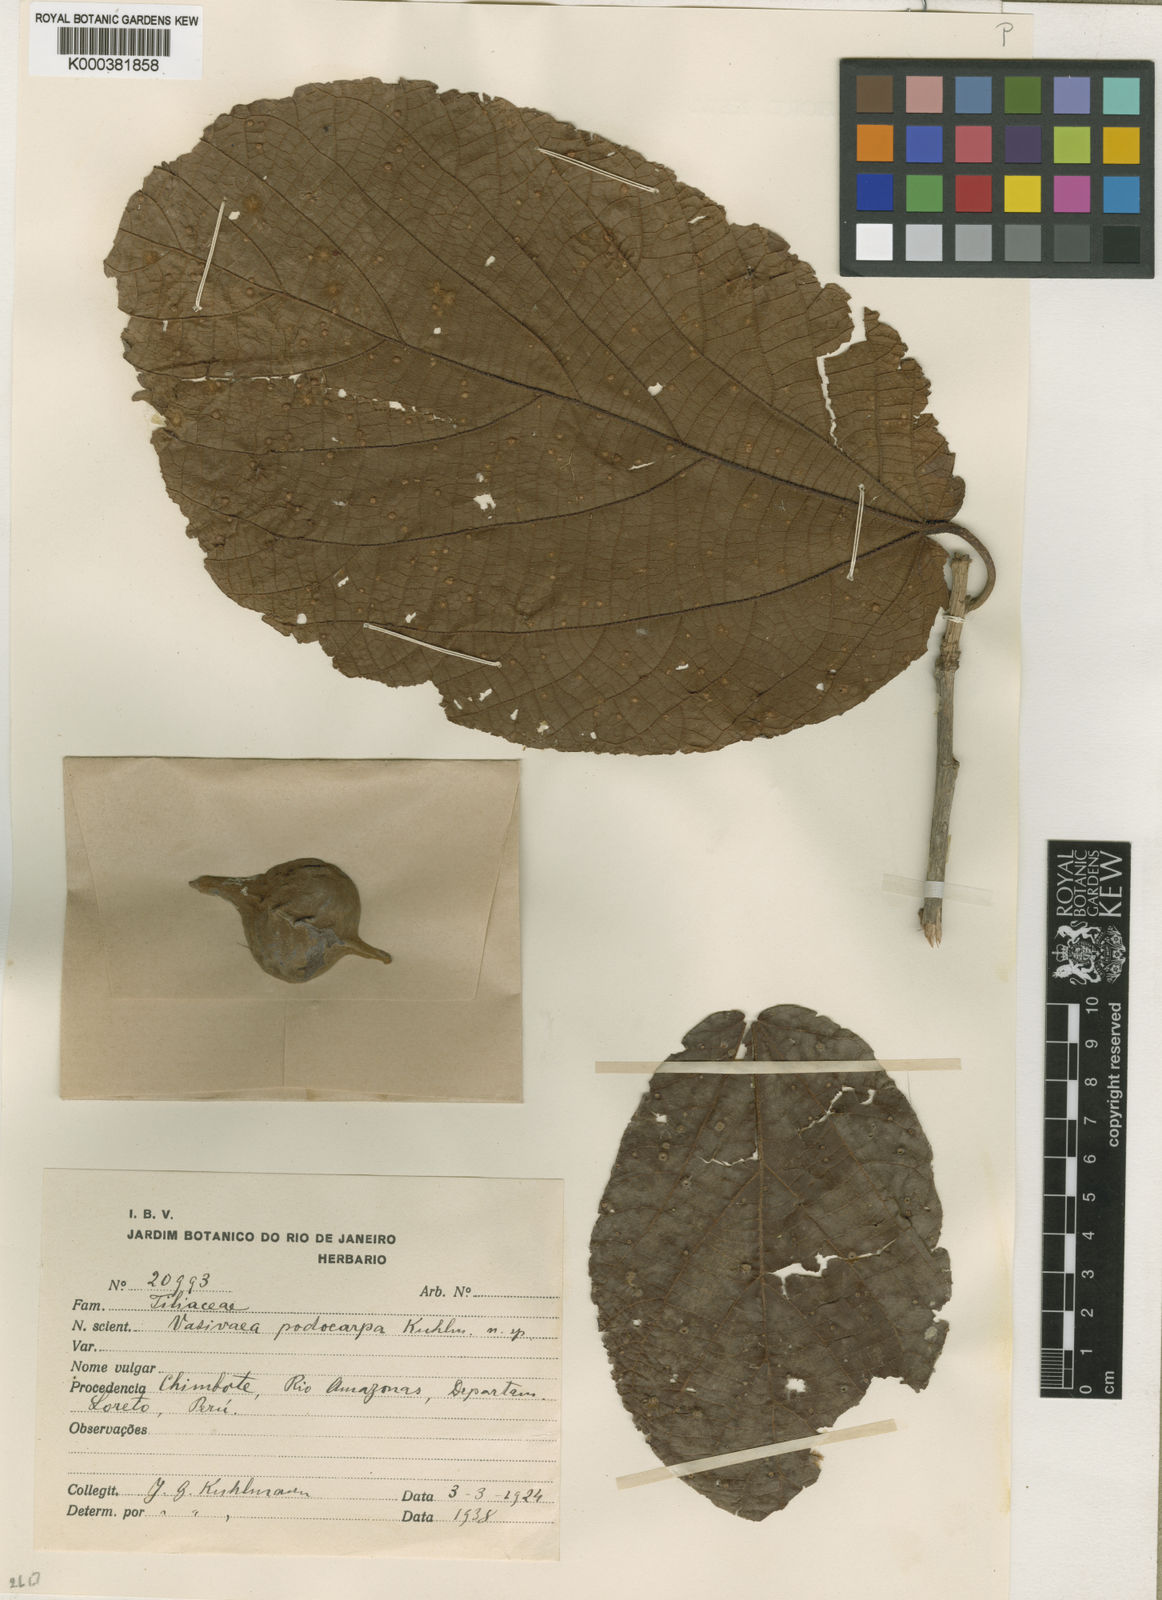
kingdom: Plantae
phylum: Tracheophyta
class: Magnoliopsida
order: Malvales
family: Malvaceae
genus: Vasivaea
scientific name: Vasivaea podocarpa
